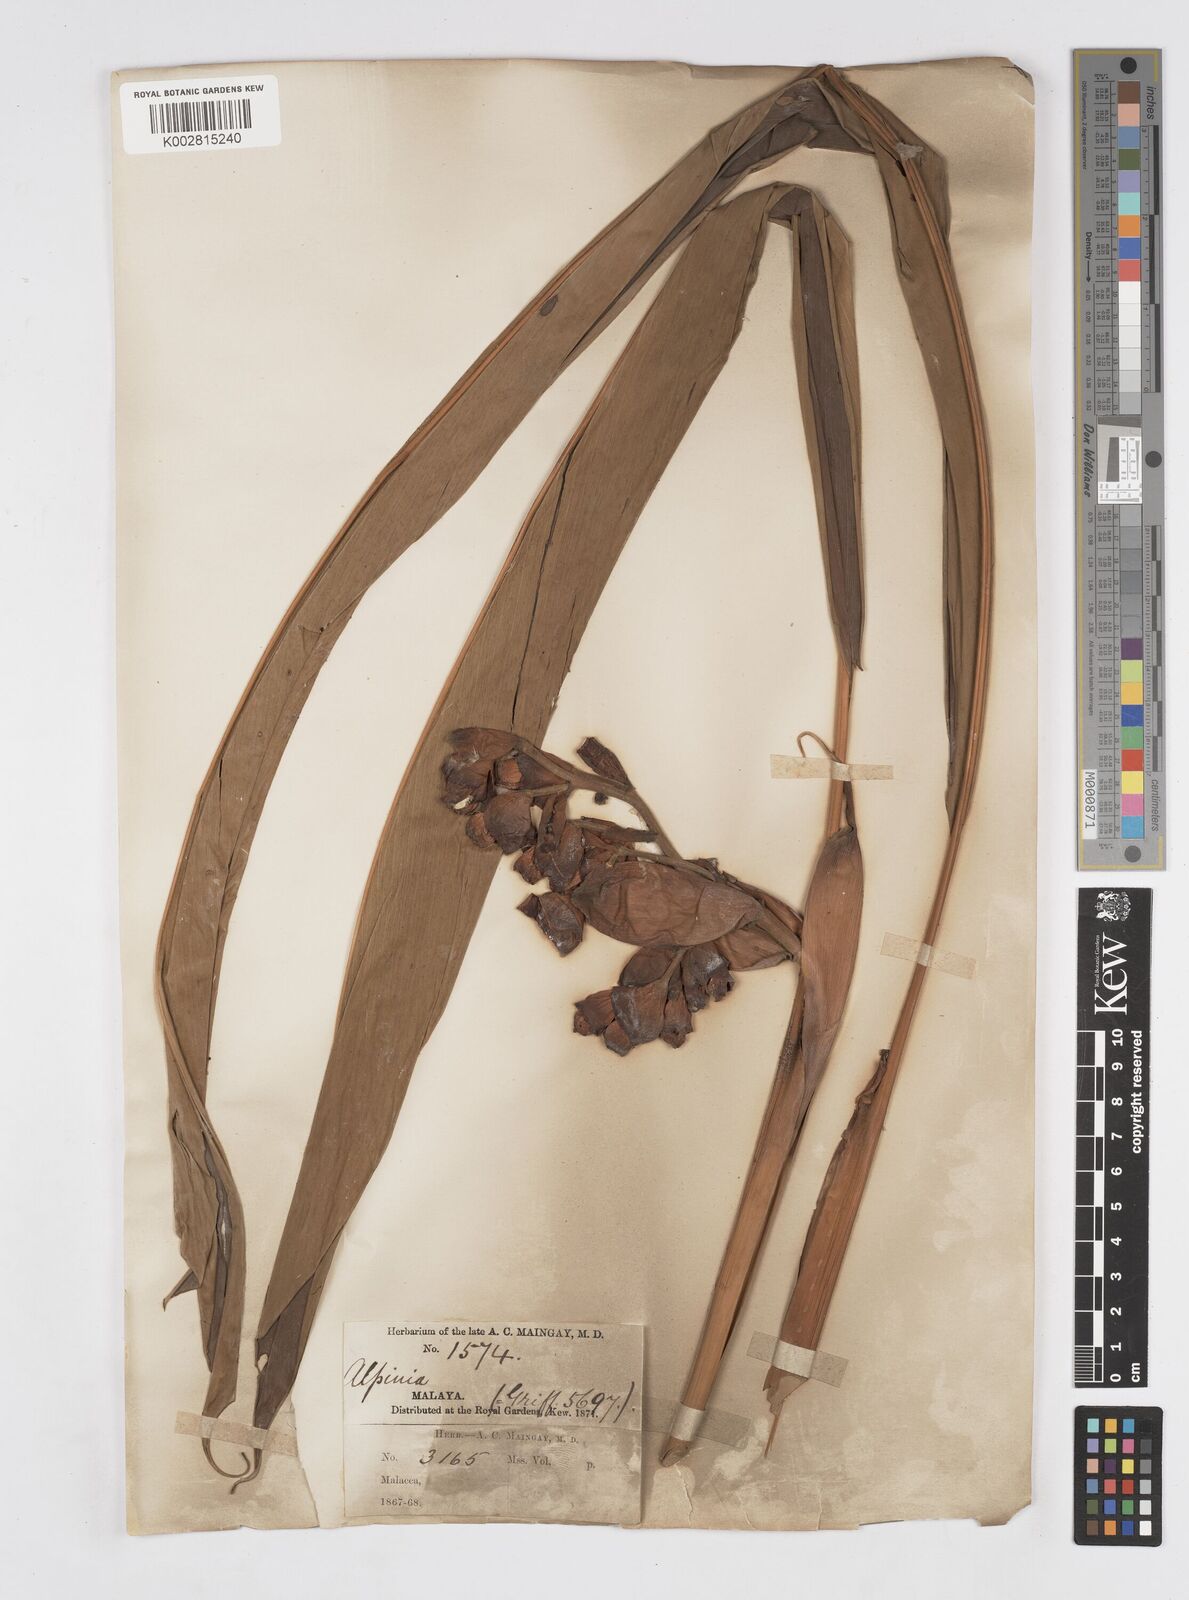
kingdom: Plantae
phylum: Tracheophyta
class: Liliopsida
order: Zingiberales
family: Zingiberaceae
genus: Alpinia
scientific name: Alpinia javanica
